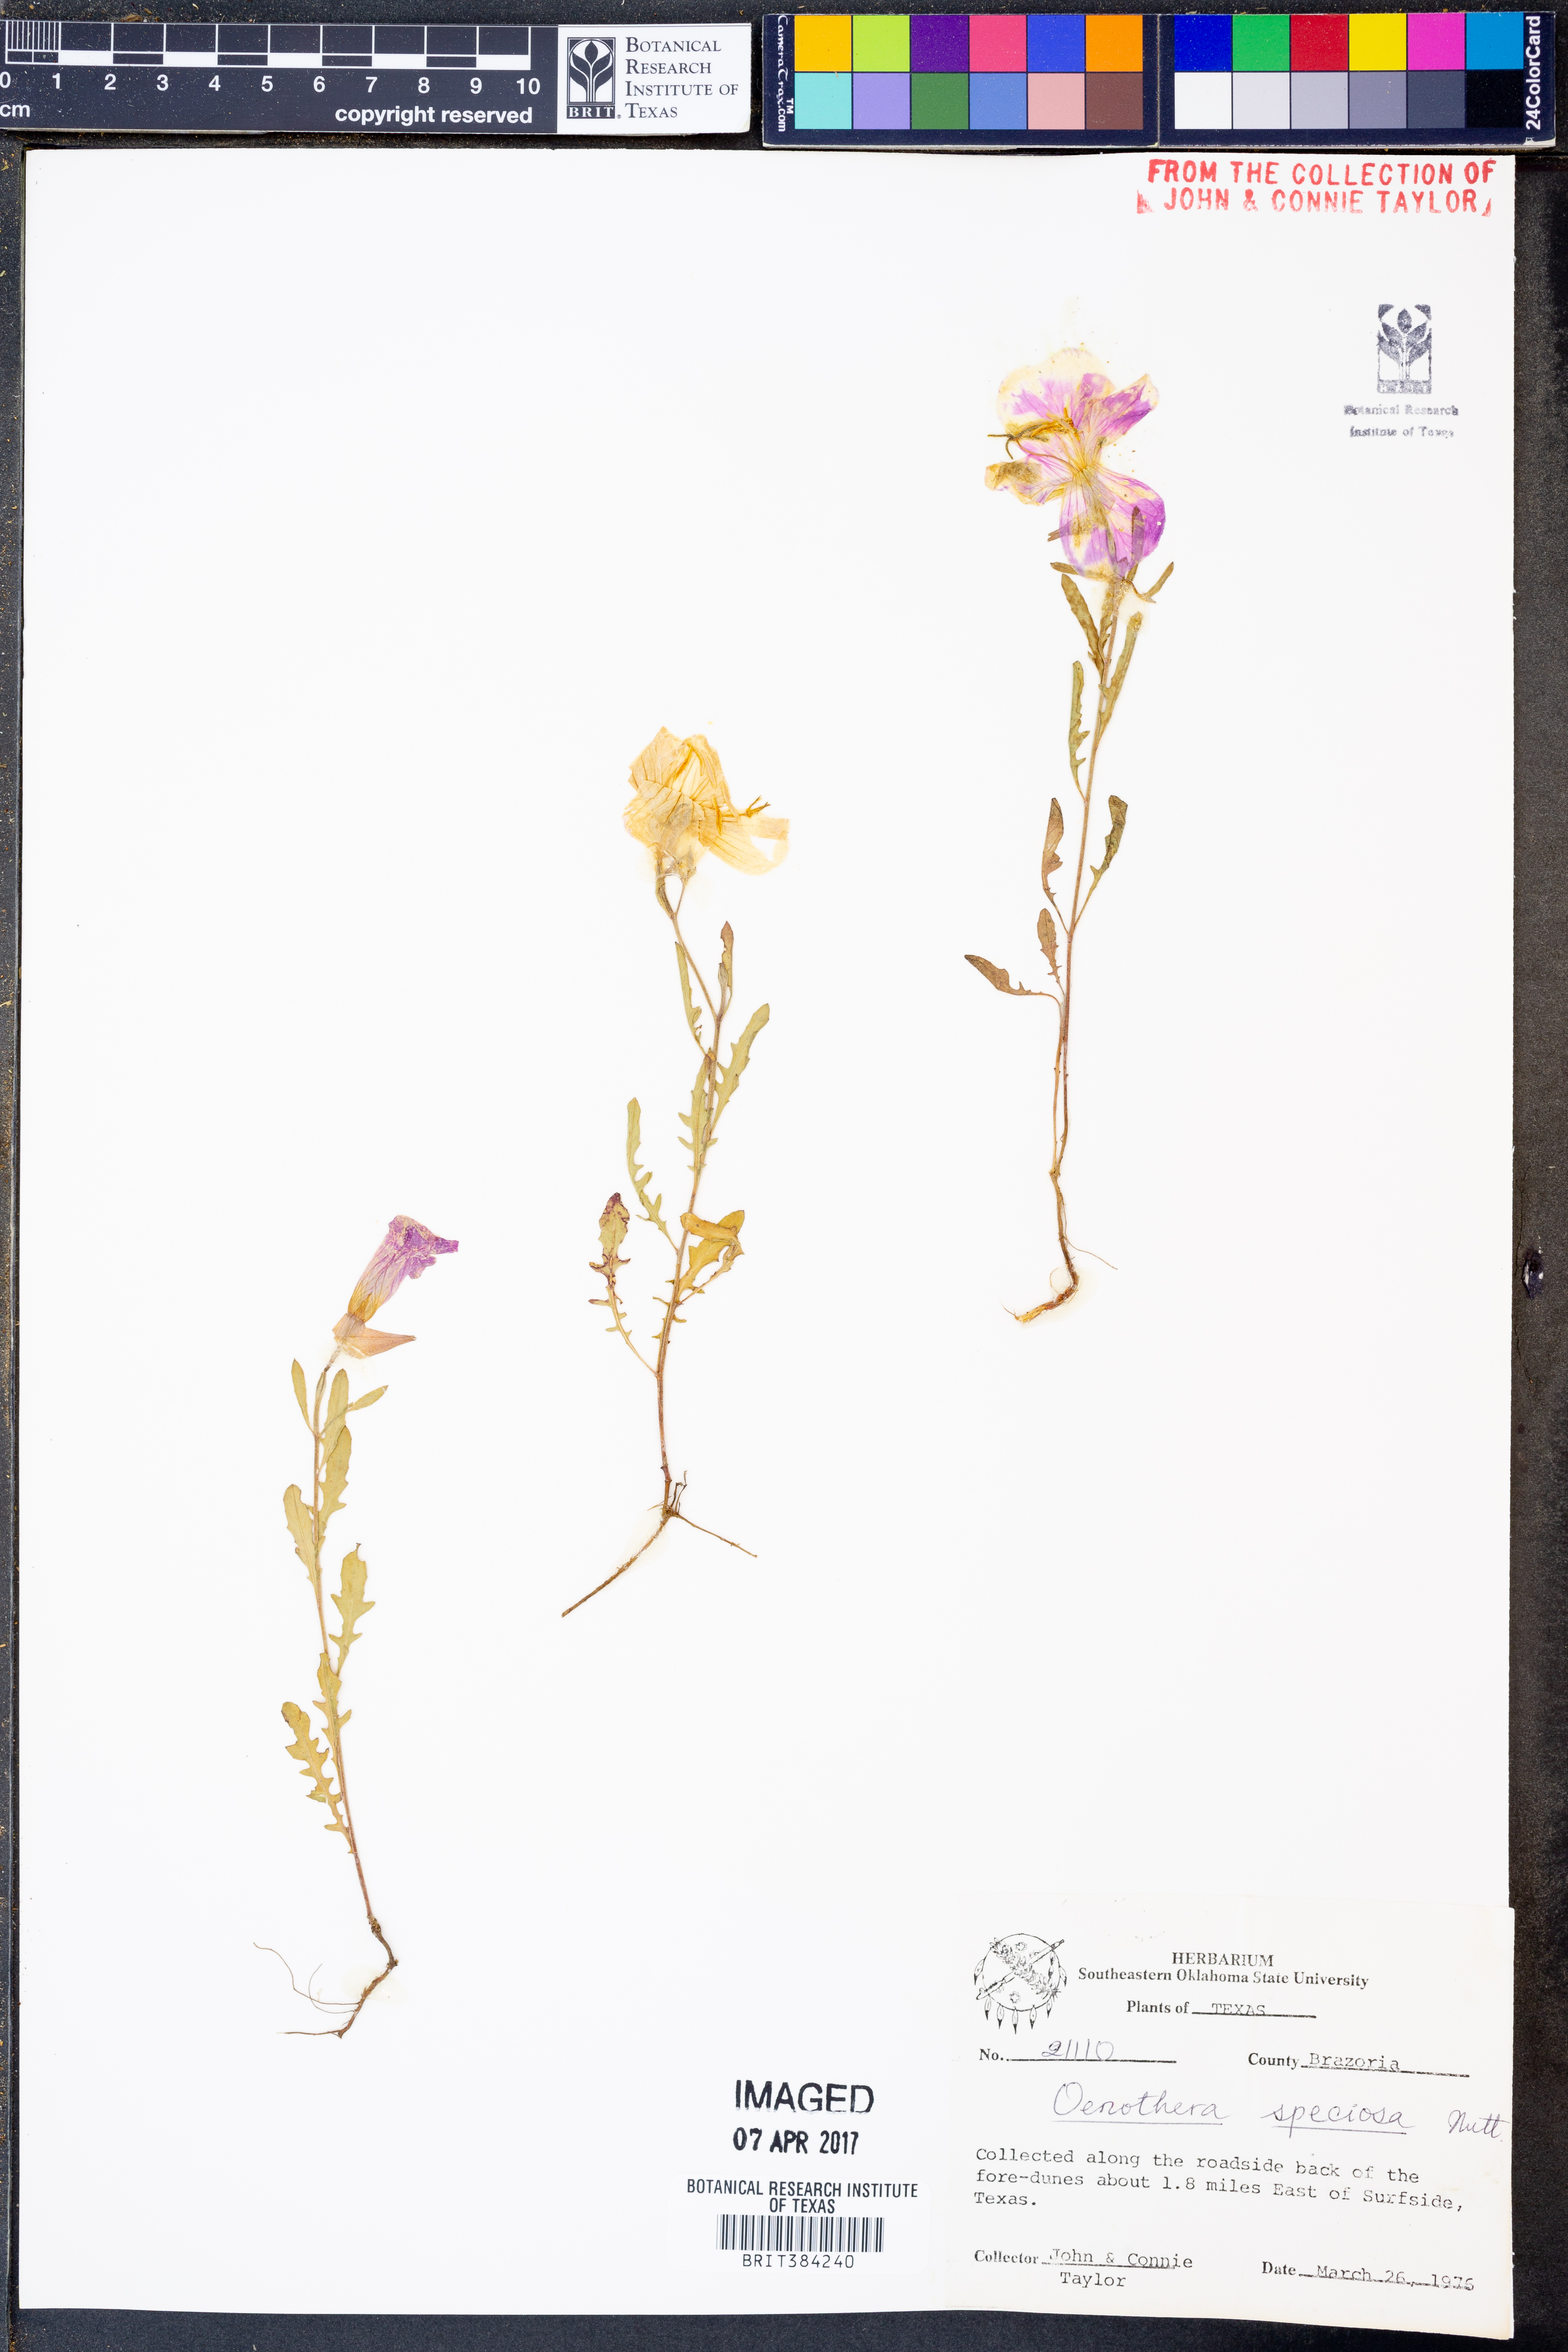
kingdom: Plantae
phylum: Tracheophyta
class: Magnoliopsida
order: Myrtales
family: Onagraceae
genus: Oenothera
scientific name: Oenothera speciosa
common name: White evening-primrose
